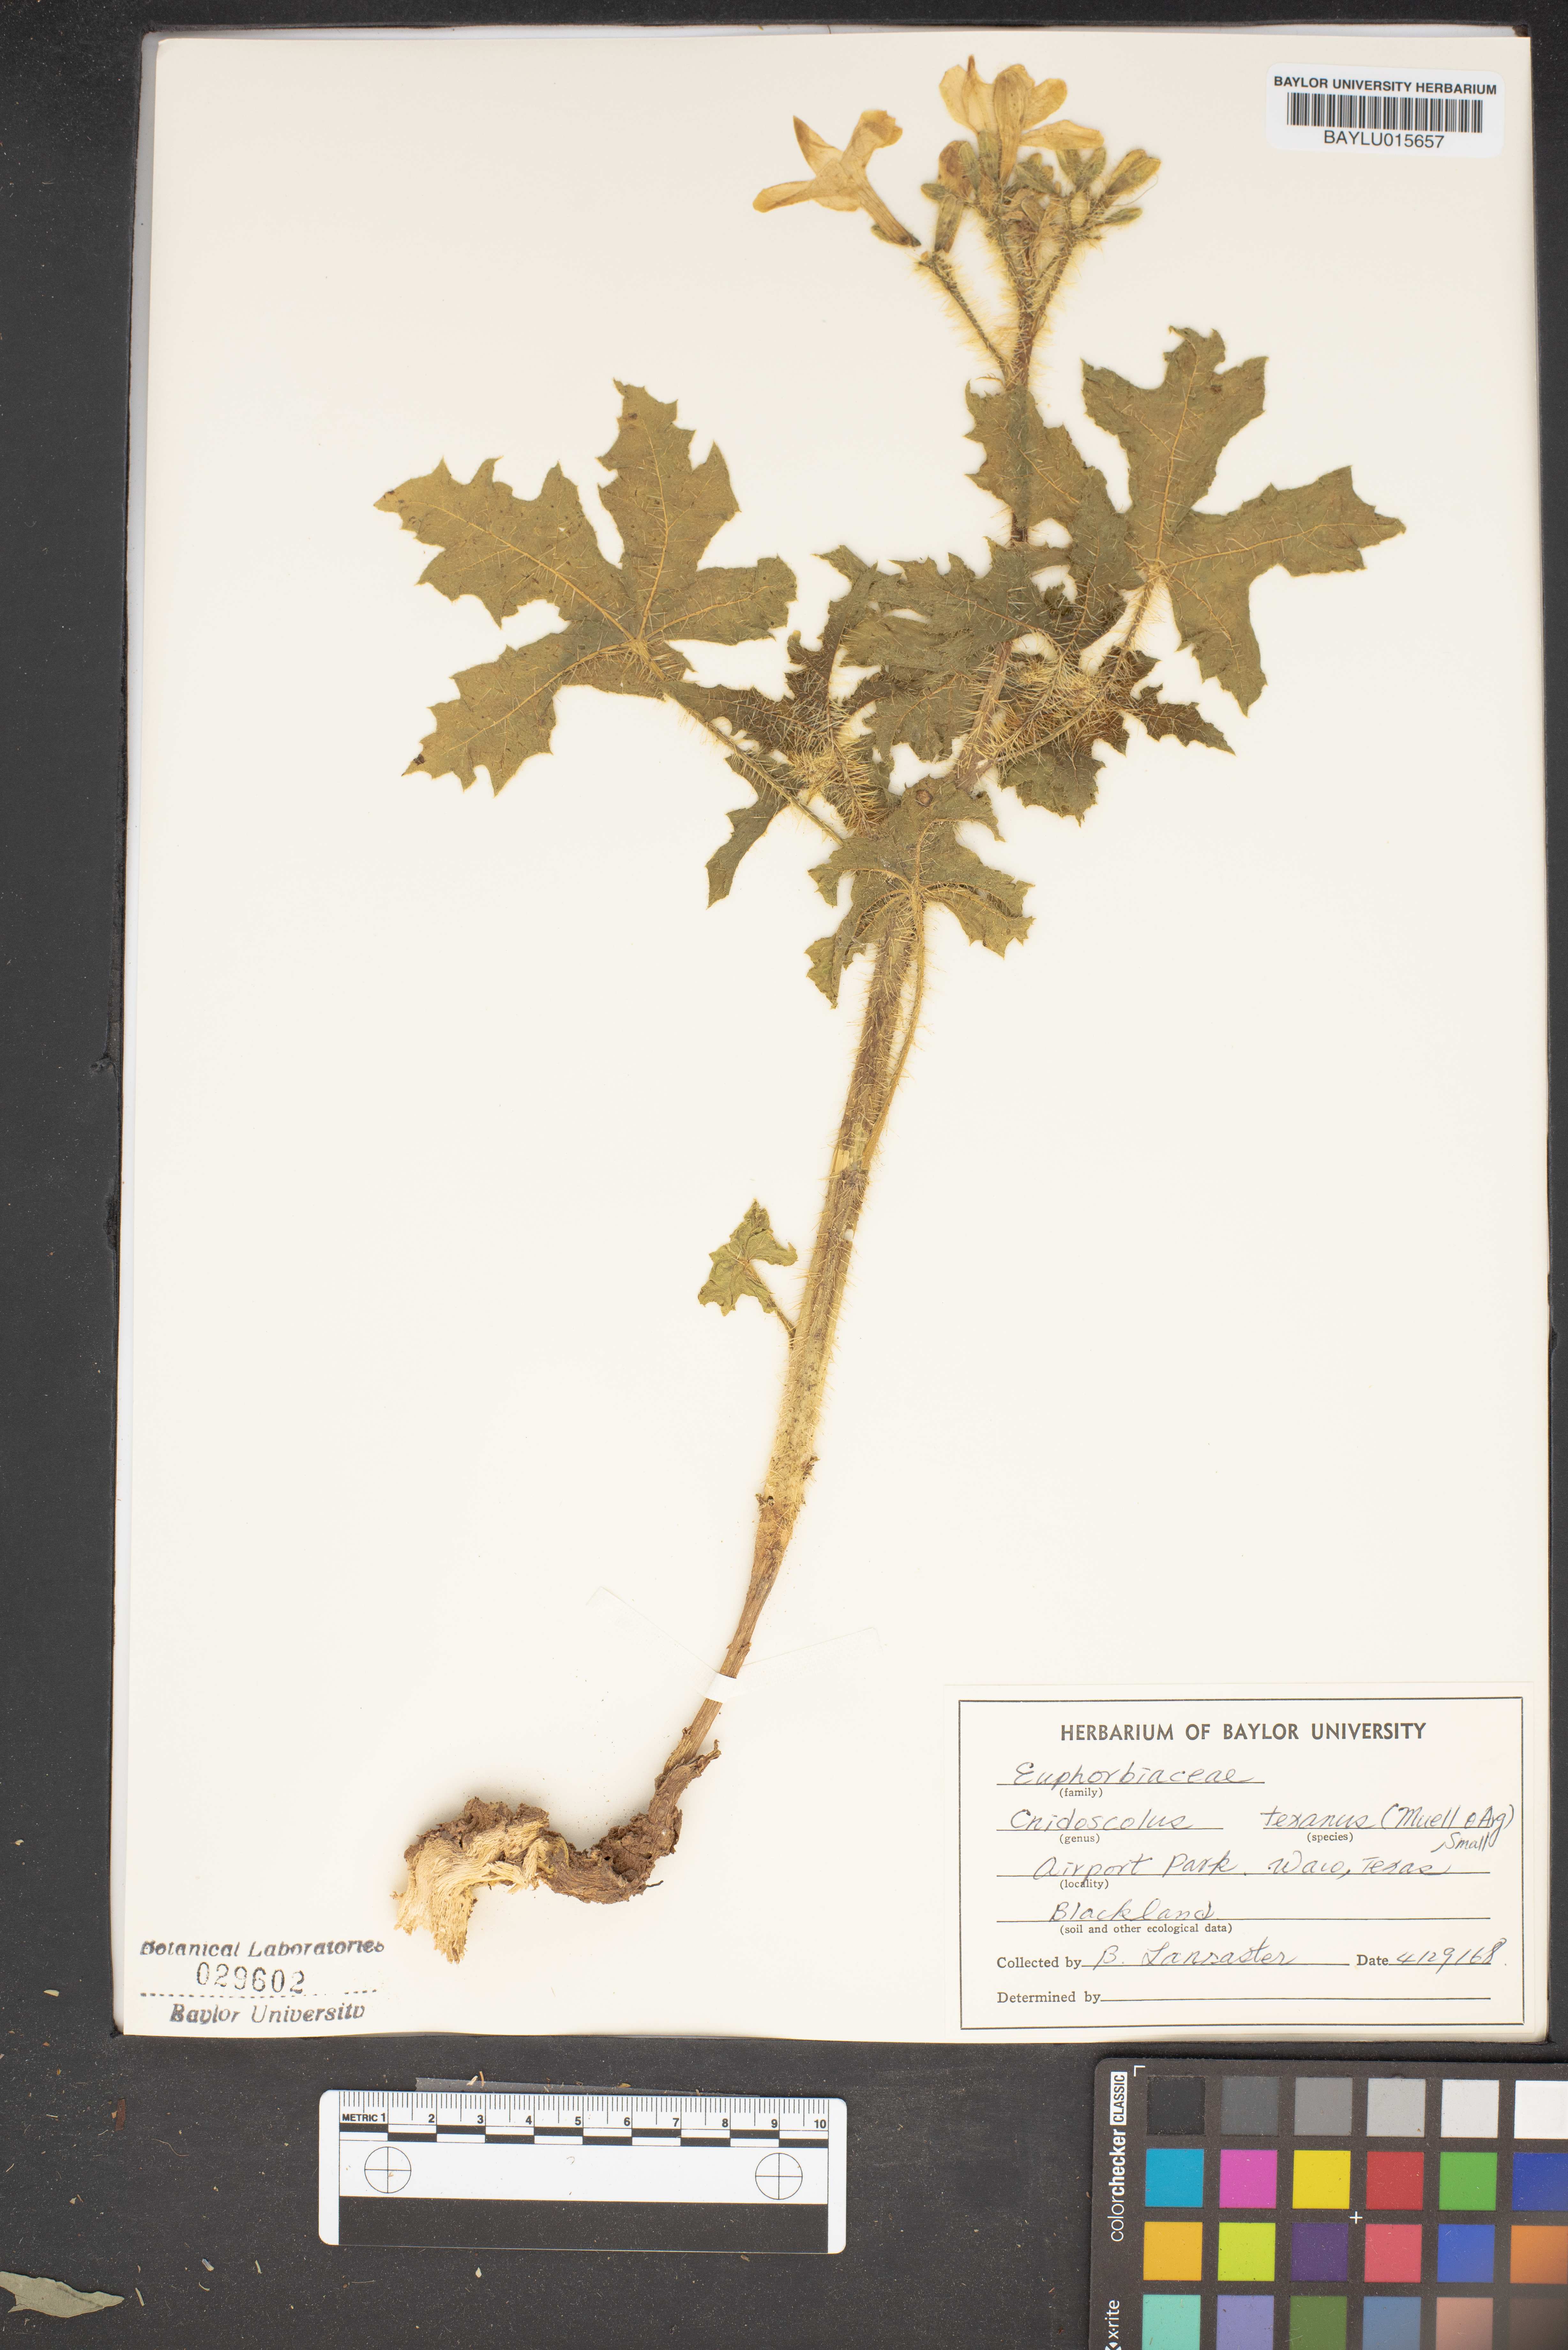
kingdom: Plantae
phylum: Tracheophyta
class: Magnoliopsida
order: Malpighiales
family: Euphorbiaceae
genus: Cnidoscolus
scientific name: Cnidoscolus texanus
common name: Texas bull-nettle
